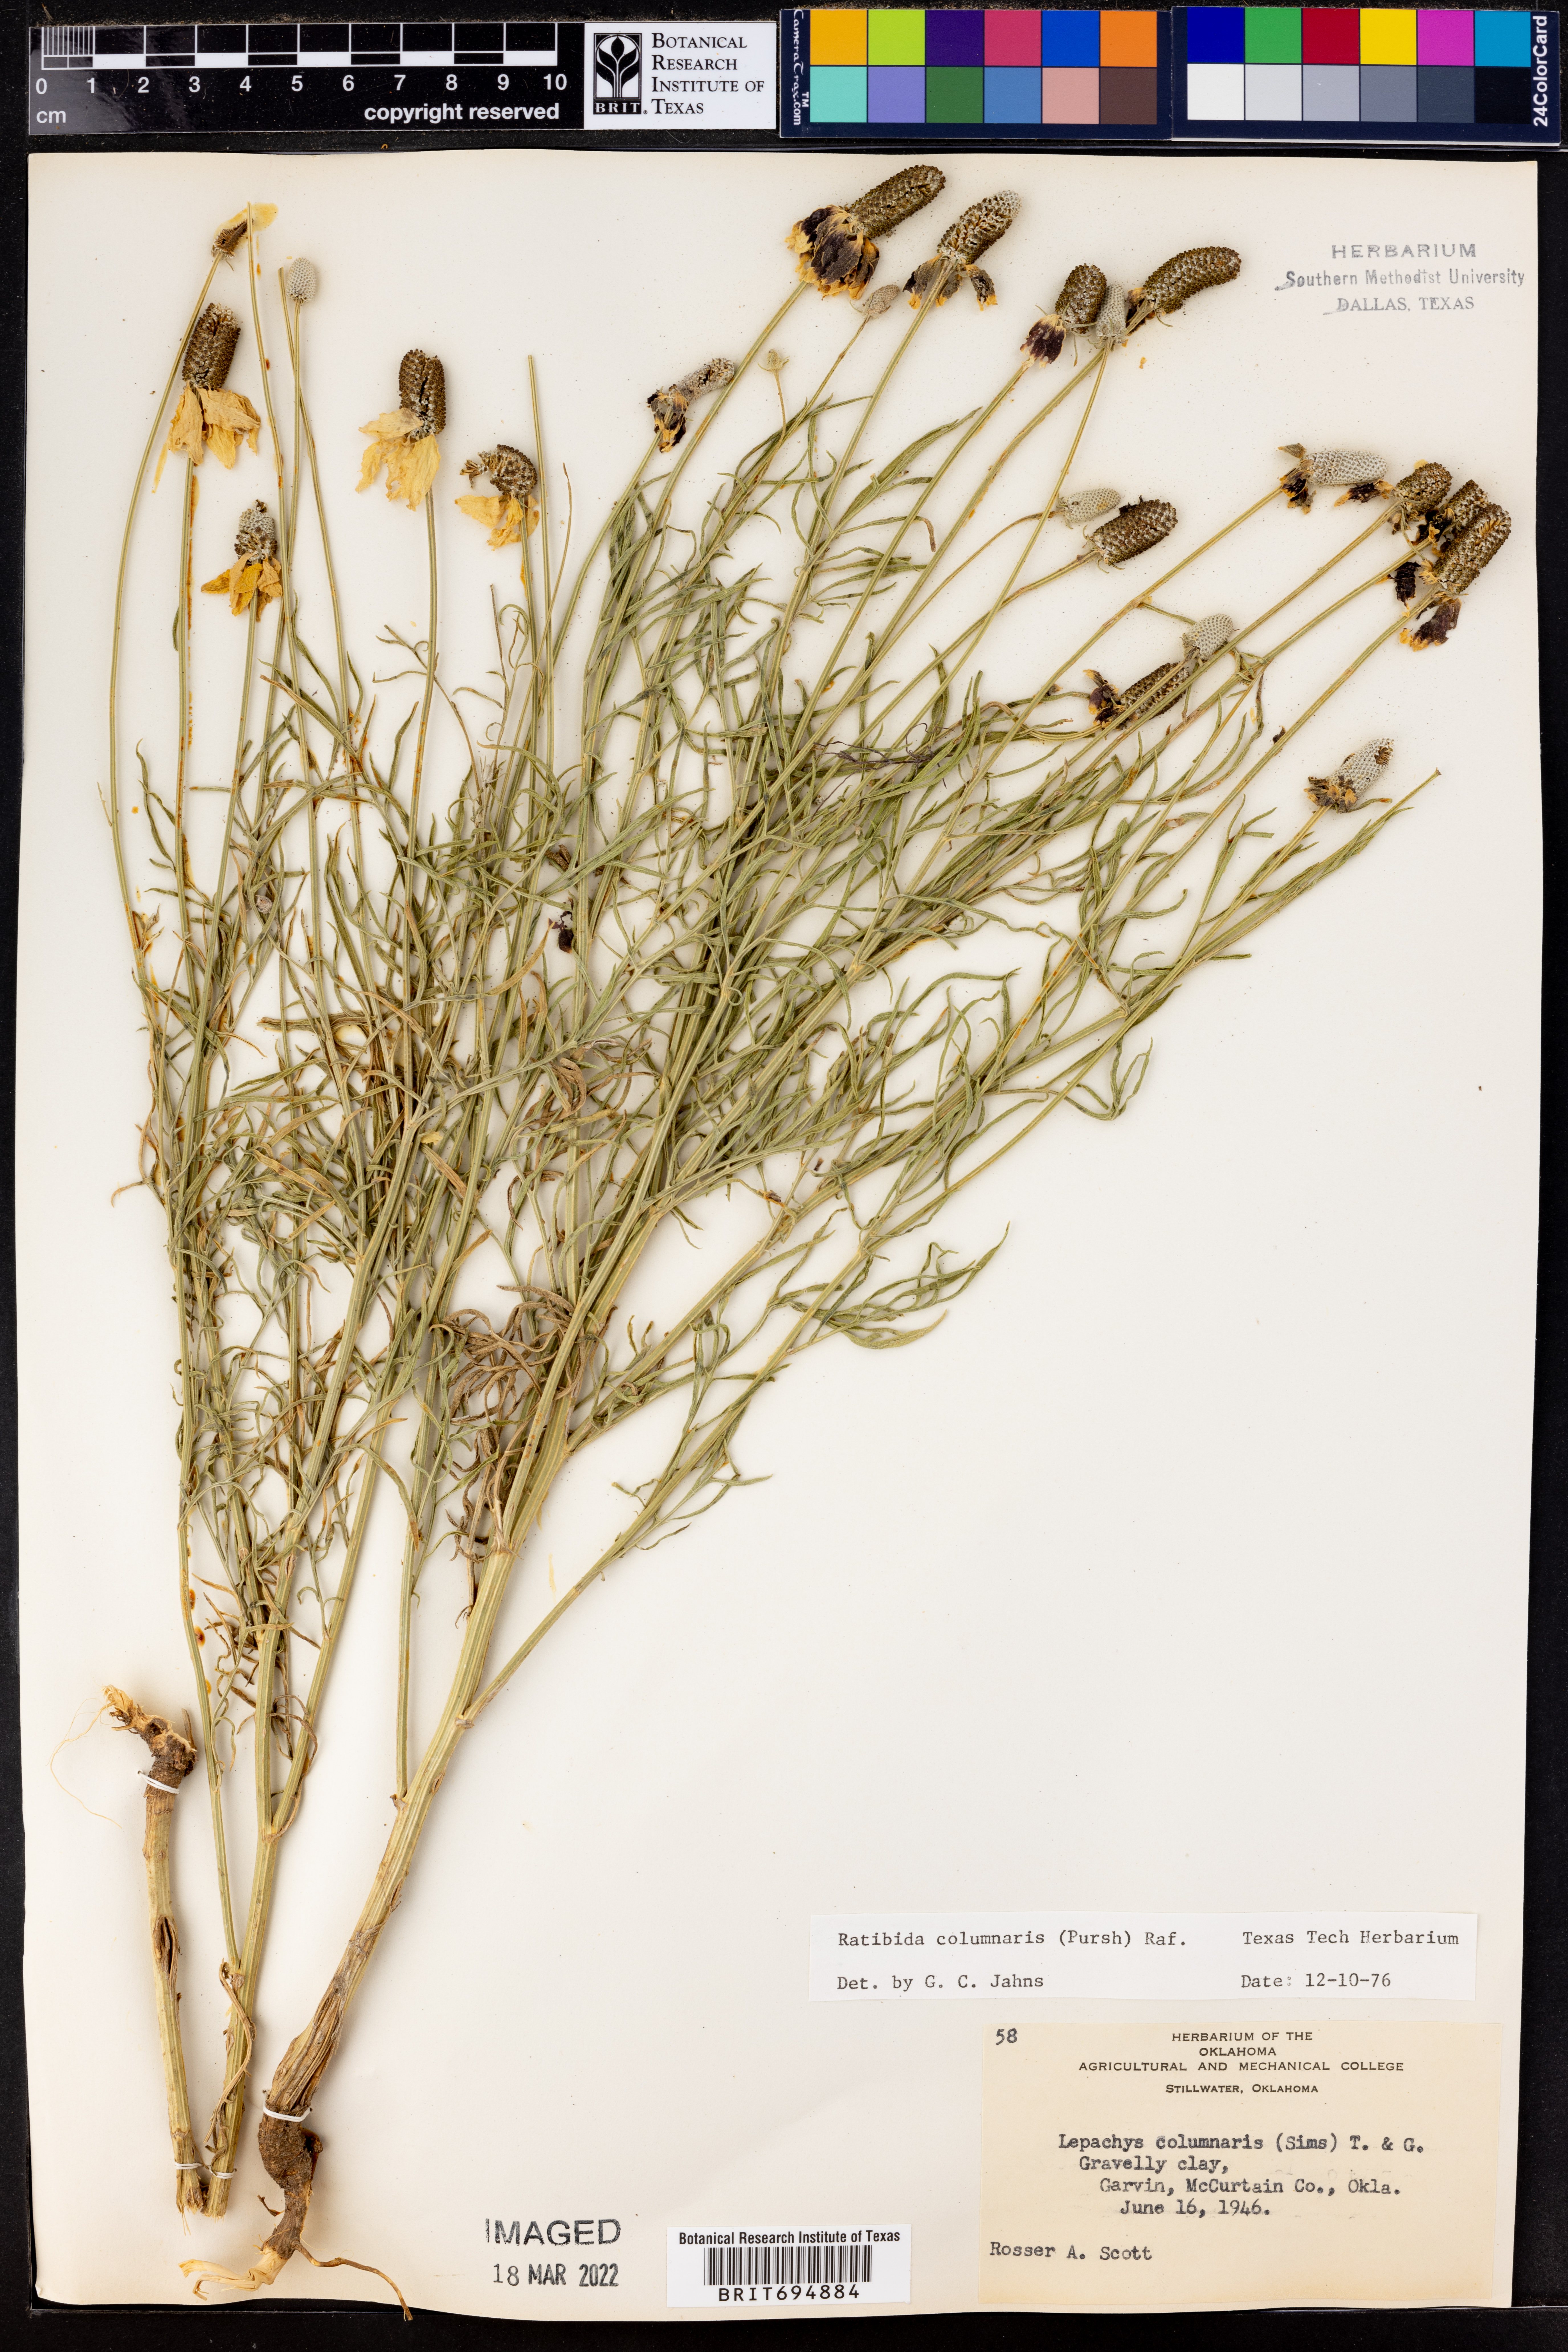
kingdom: Plantae
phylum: Tracheophyta
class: Magnoliopsida
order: Asterales
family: Asteraceae
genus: Ratibida
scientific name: Ratibida columnifera
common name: Prairie coneflower
